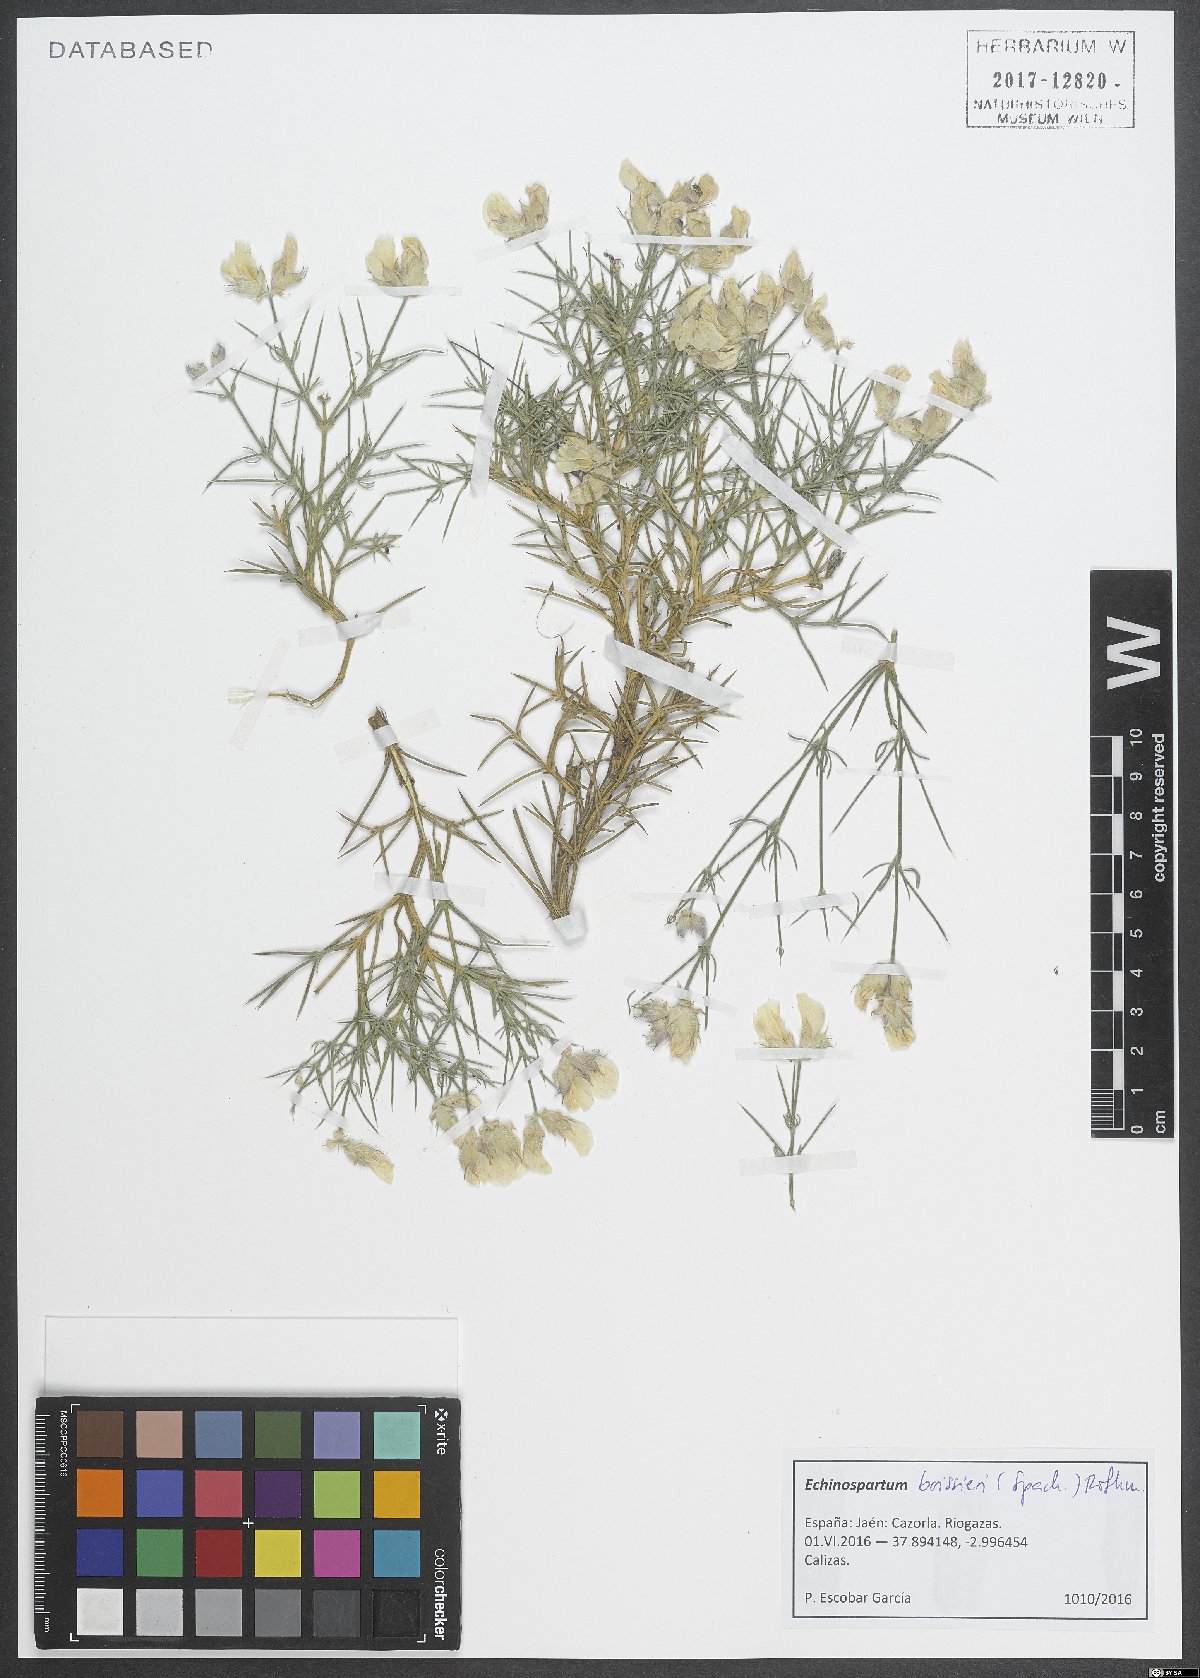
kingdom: Plantae
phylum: Tracheophyta
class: Magnoliopsida
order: Fabales
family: Fabaceae
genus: Echinospartum
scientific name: Echinospartum boissieri
